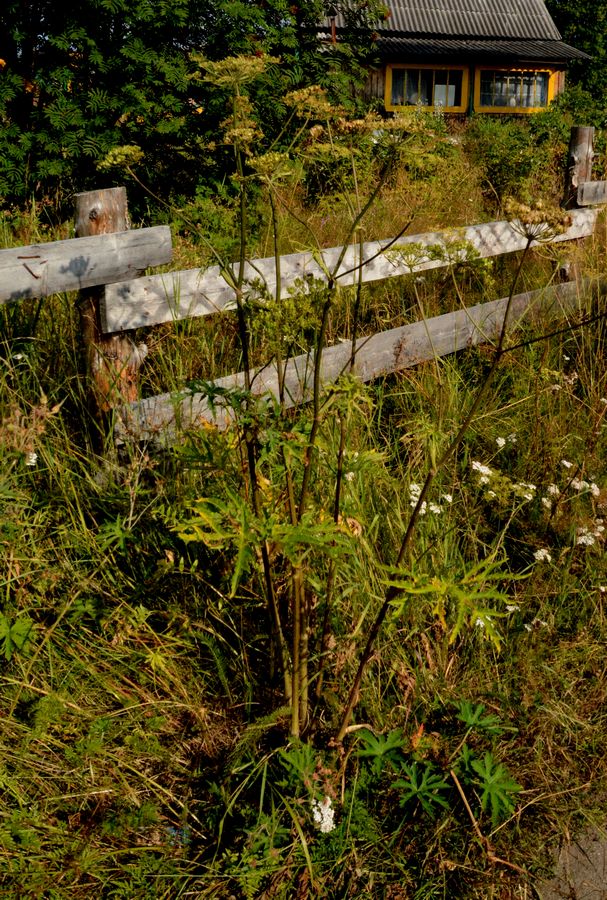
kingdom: Plantae
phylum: Tracheophyta
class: Magnoliopsida
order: Apiales
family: Apiaceae
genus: Heracleum
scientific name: Heracleum sphondylium
